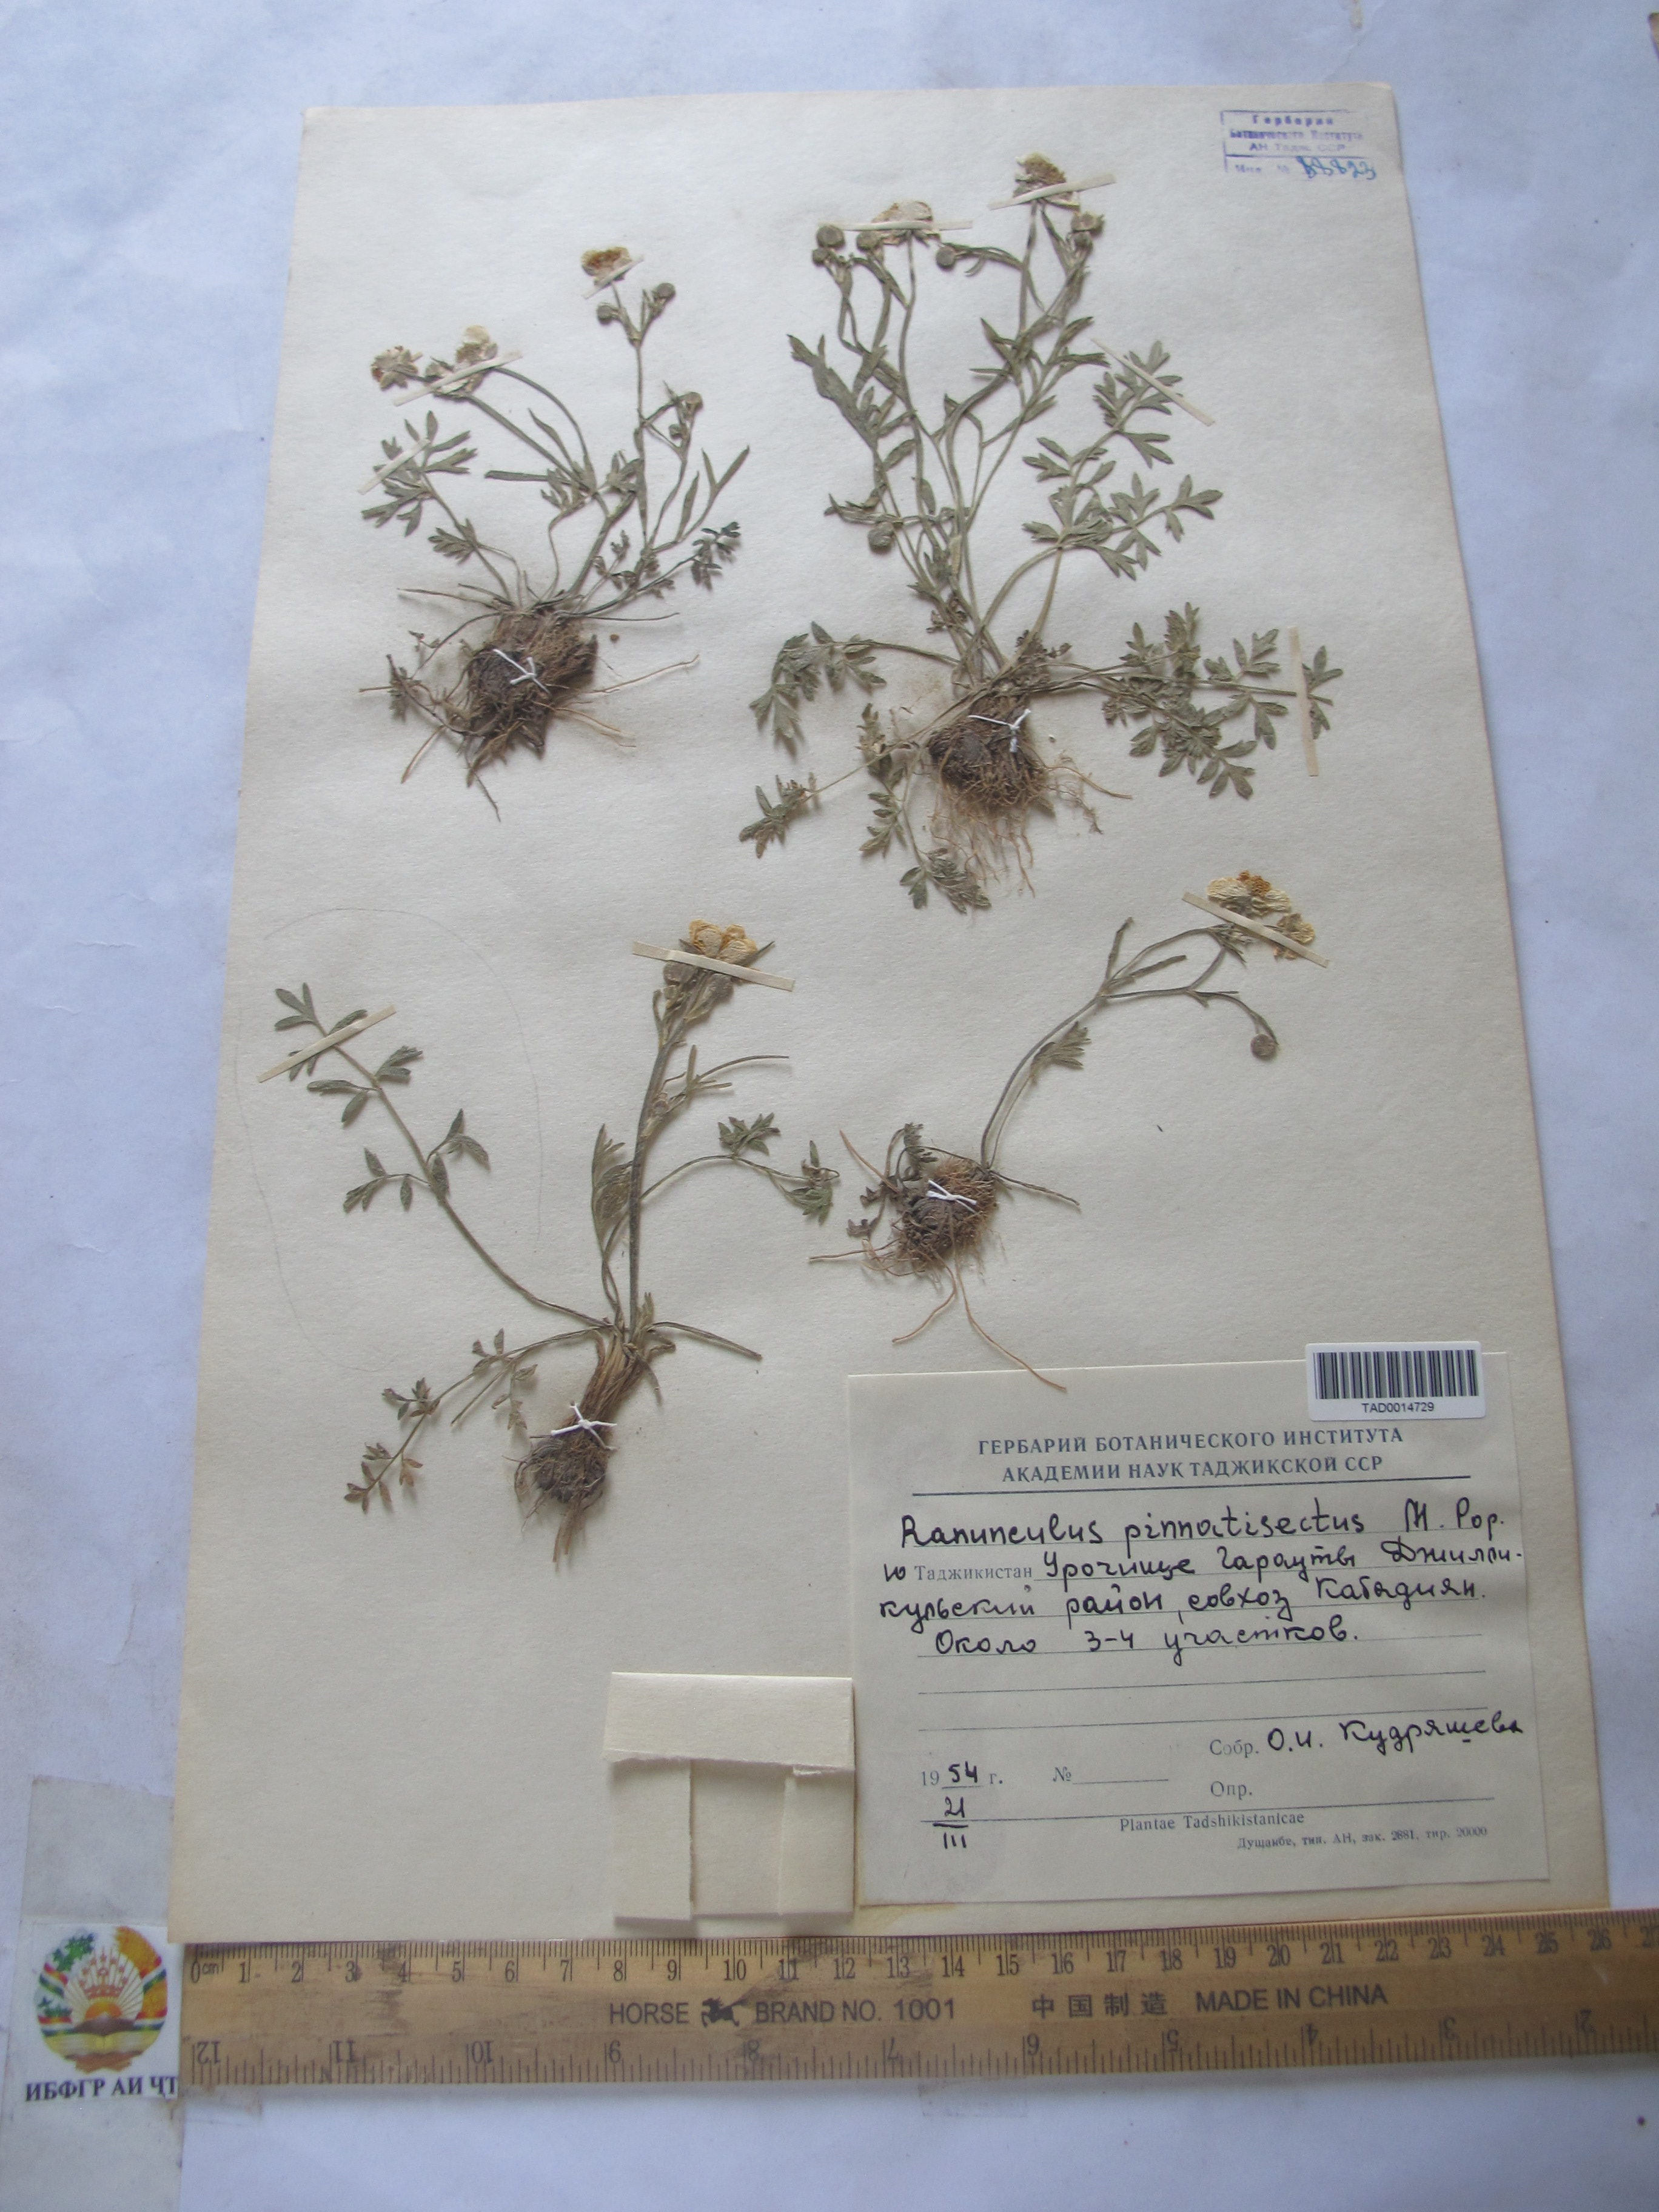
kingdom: Plantae
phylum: Tracheophyta
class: Magnoliopsida
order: Ranunculales
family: Ranunculaceae
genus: Ranunculus
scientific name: Ranunculus pinnatisectus
